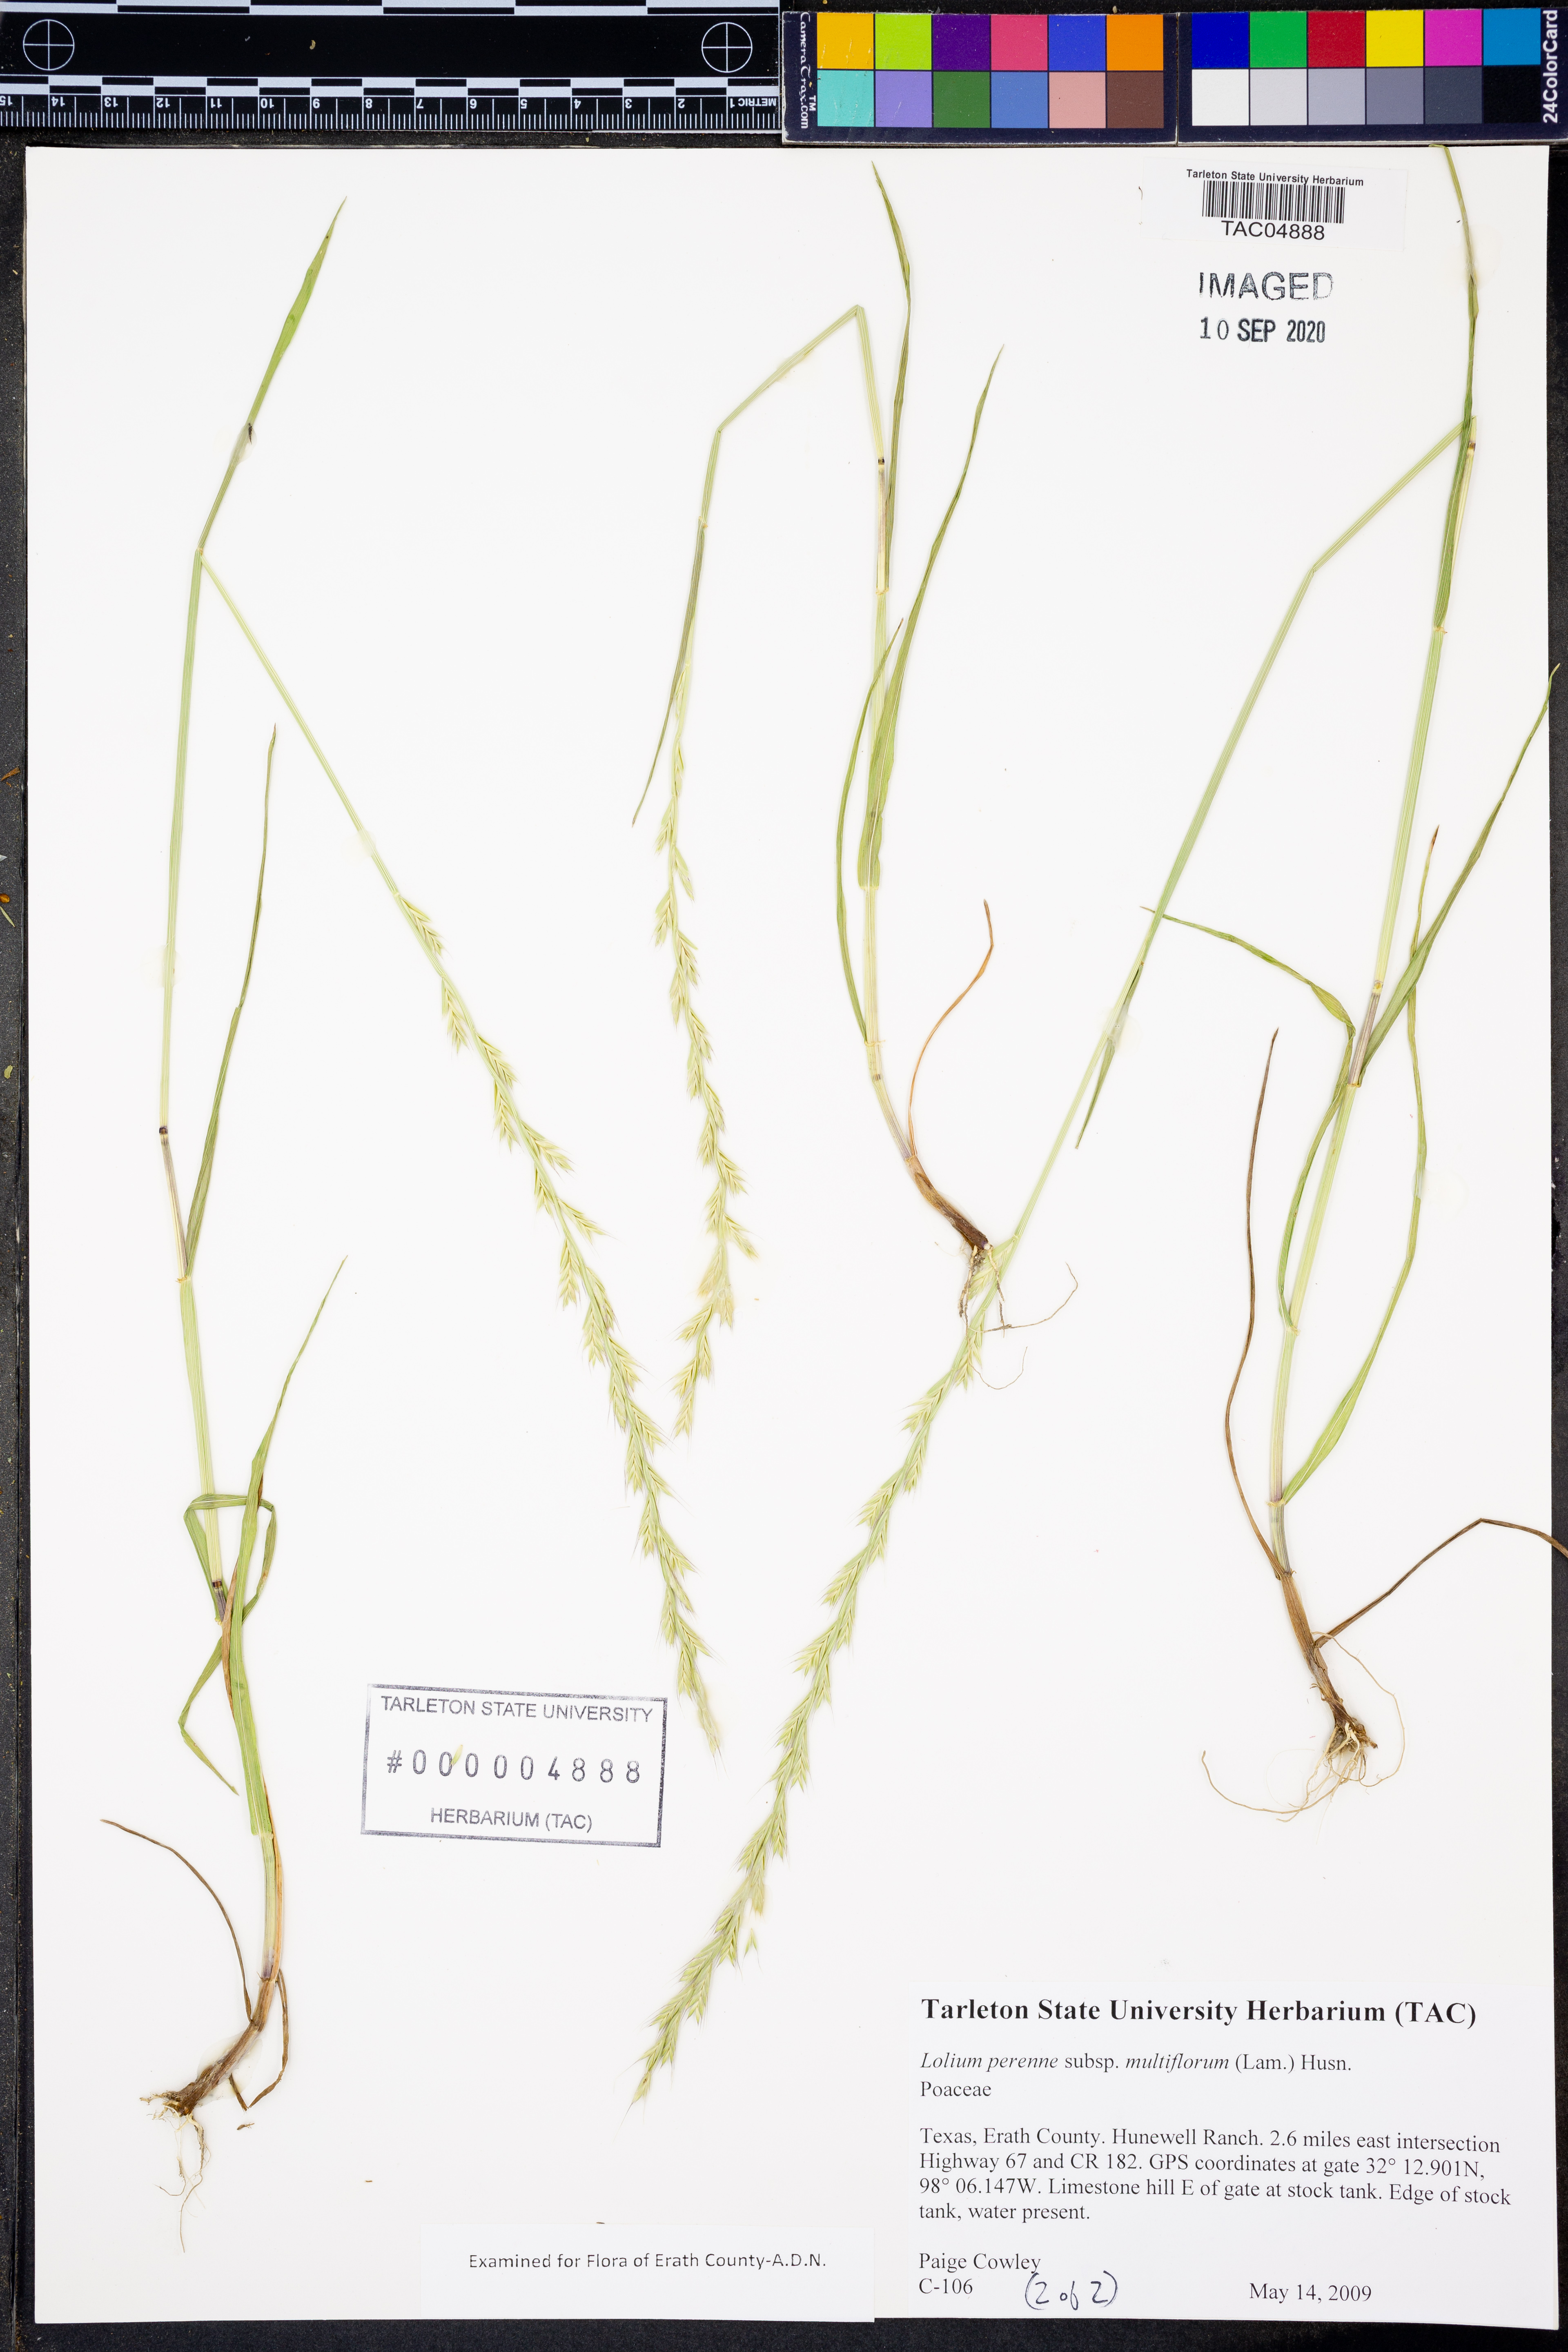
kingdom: Plantae
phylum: Tracheophyta
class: Liliopsida
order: Poales
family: Poaceae
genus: Lolium
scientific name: Lolium multiflorum
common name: Annual ryegrass
